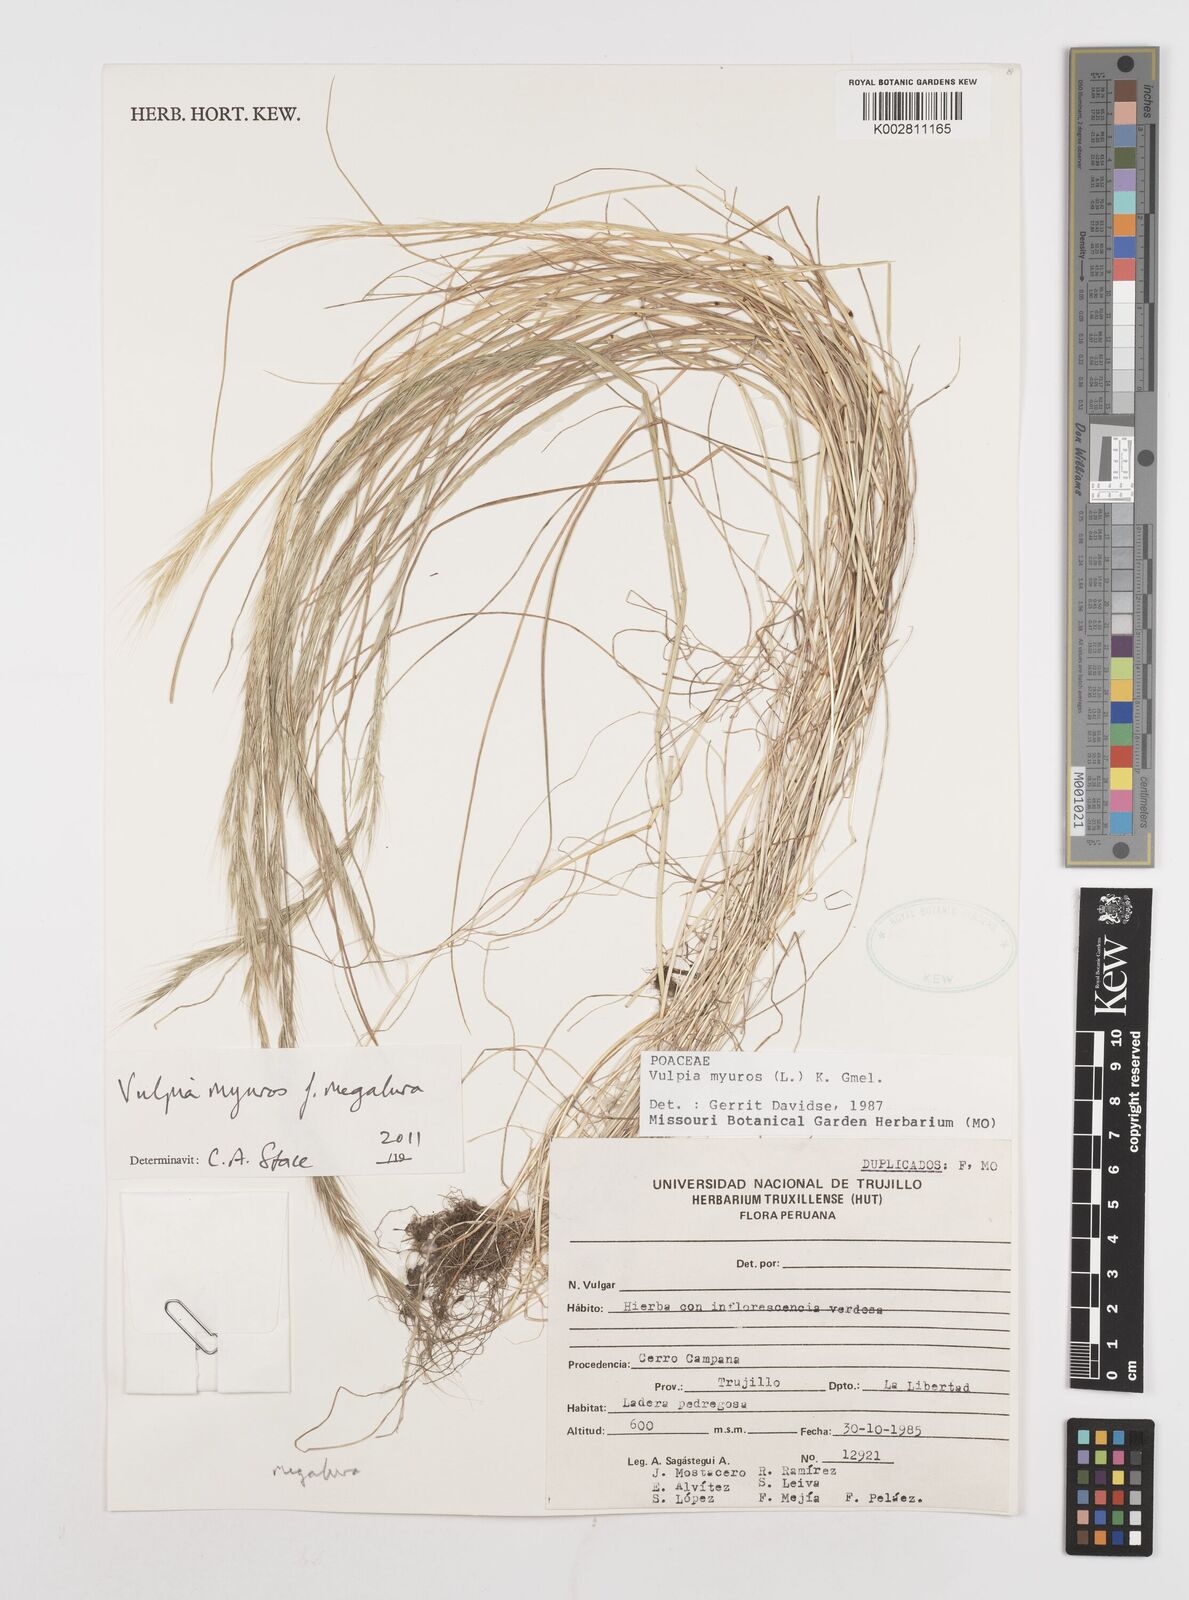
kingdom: Plantae
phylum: Tracheophyta
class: Liliopsida
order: Poales
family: Poaceae
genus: Festuca
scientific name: Festuca myuros
